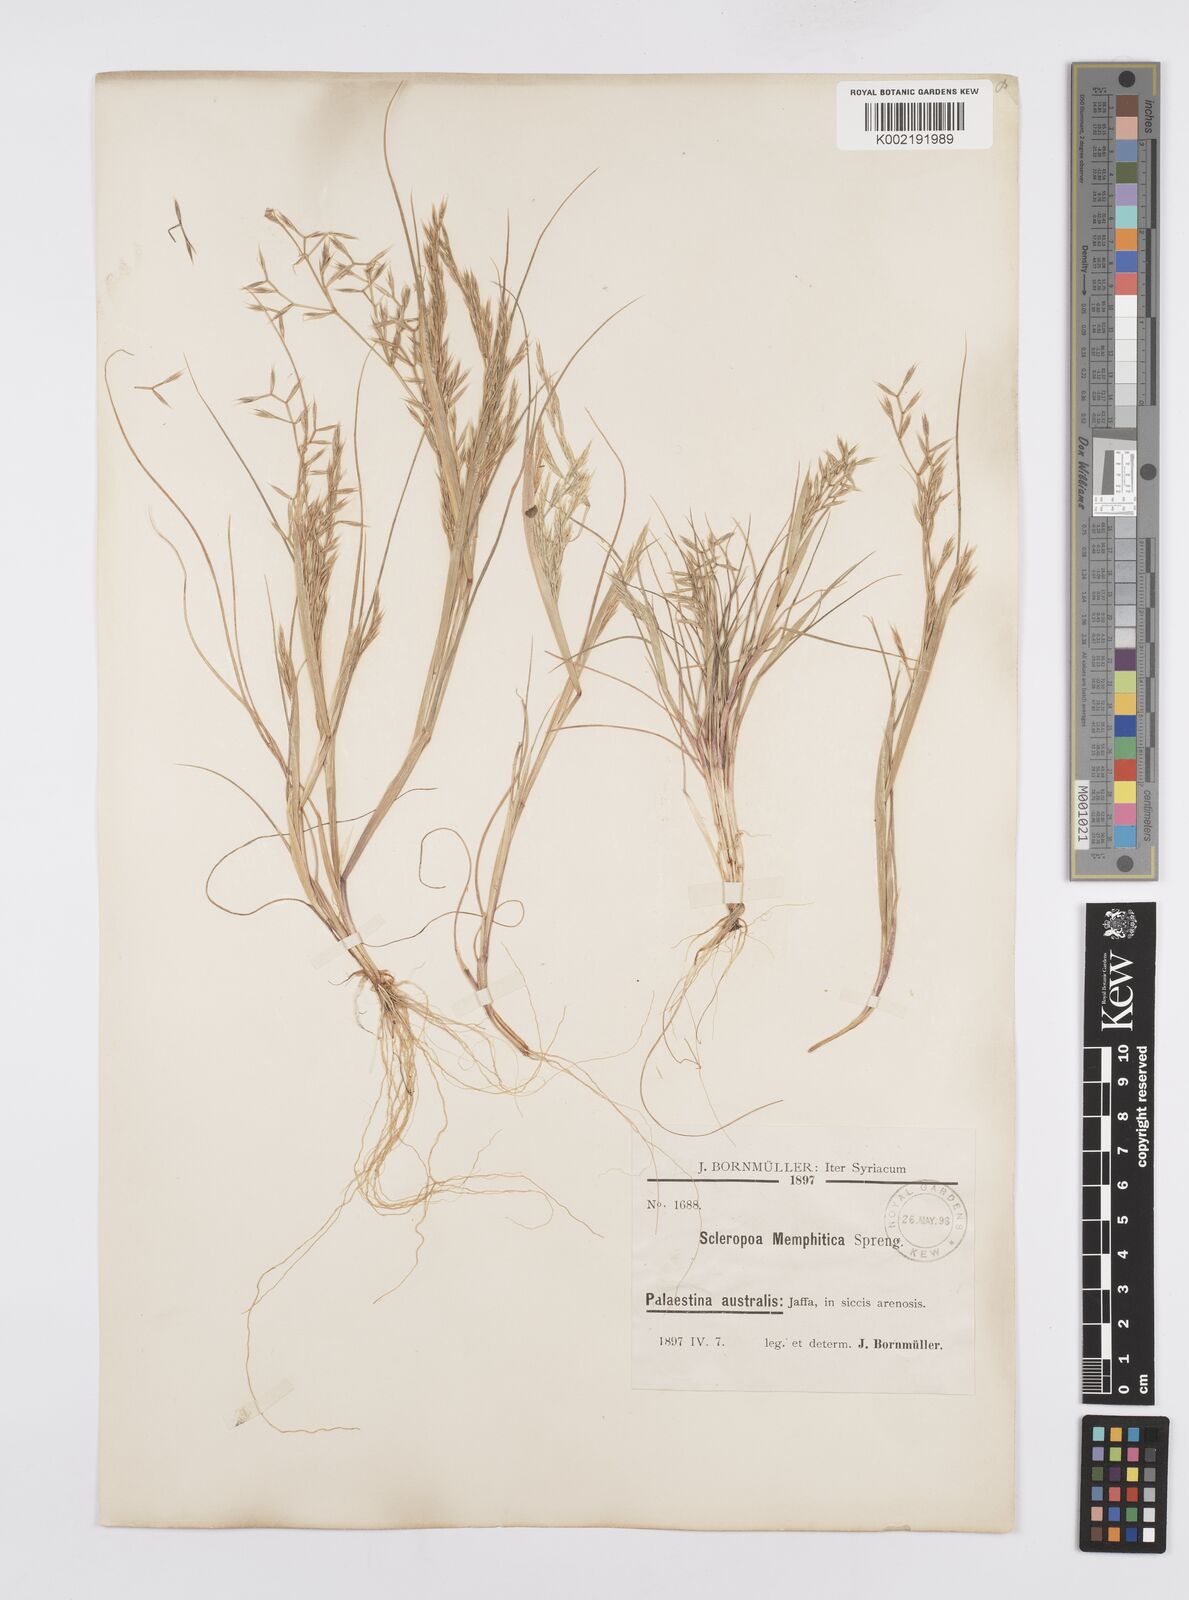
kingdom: Plantae
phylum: Tracheophyta
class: Liliopsida
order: Poales
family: Poaceae
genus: Cutandia
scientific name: Cutandia memphitica
